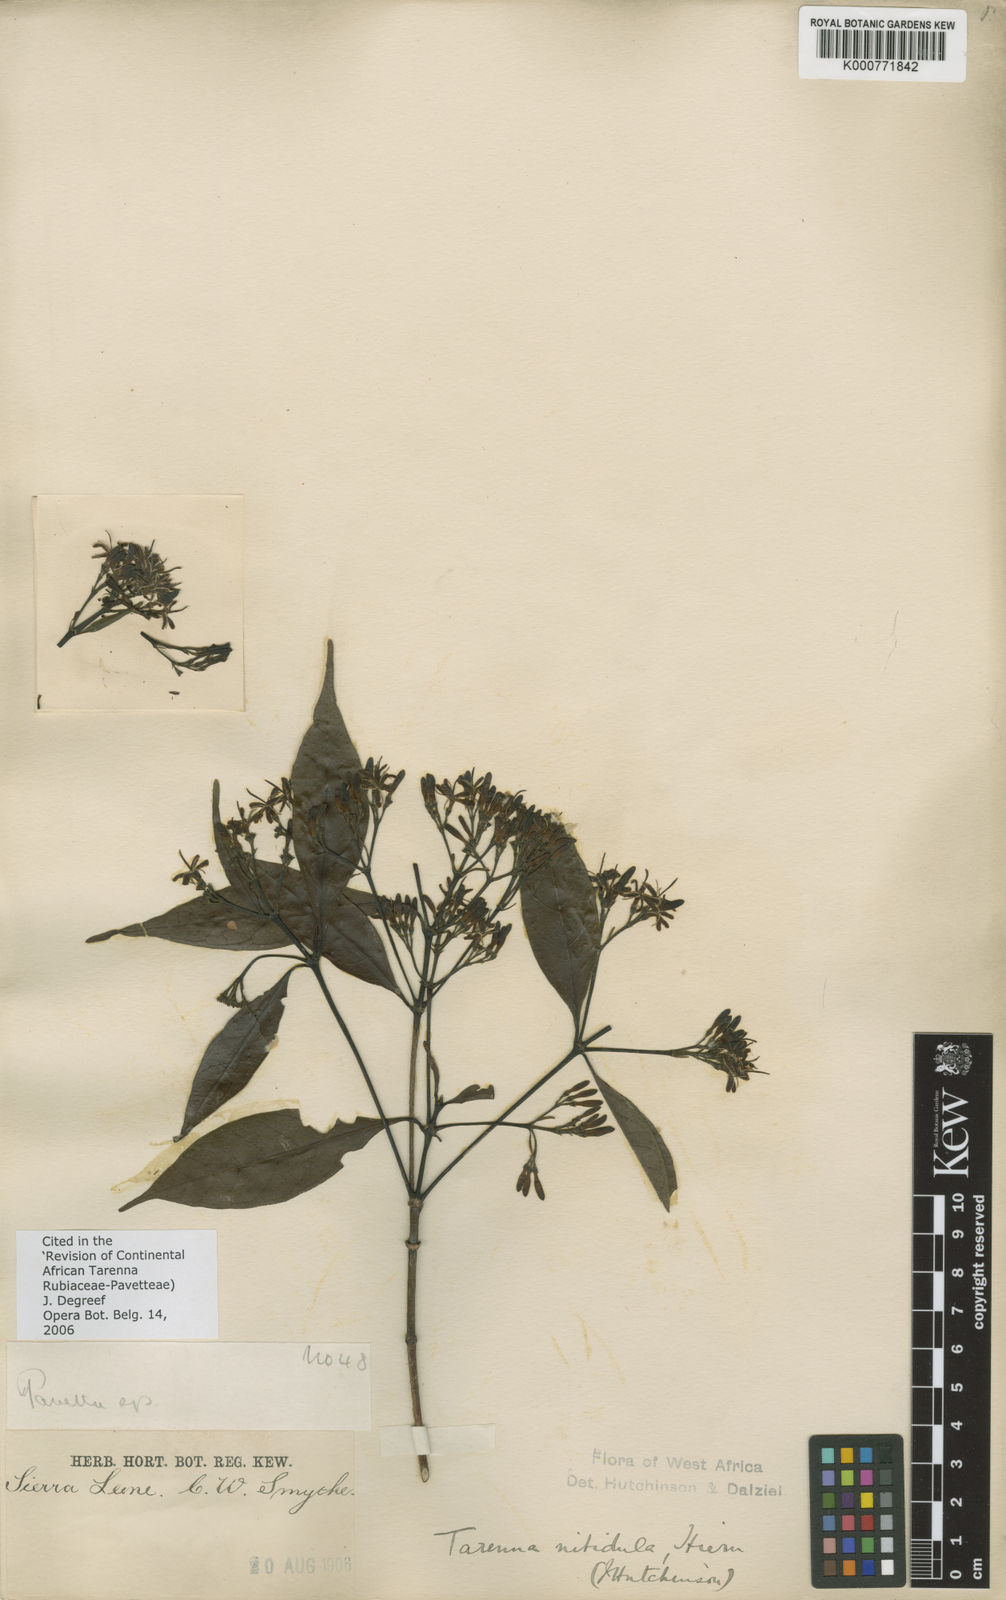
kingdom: Plantae
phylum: Tracheophyta
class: Magnoliopsida
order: Gentianales
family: Rubiaceae
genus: Tarenna
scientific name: Tarenna nitidula
